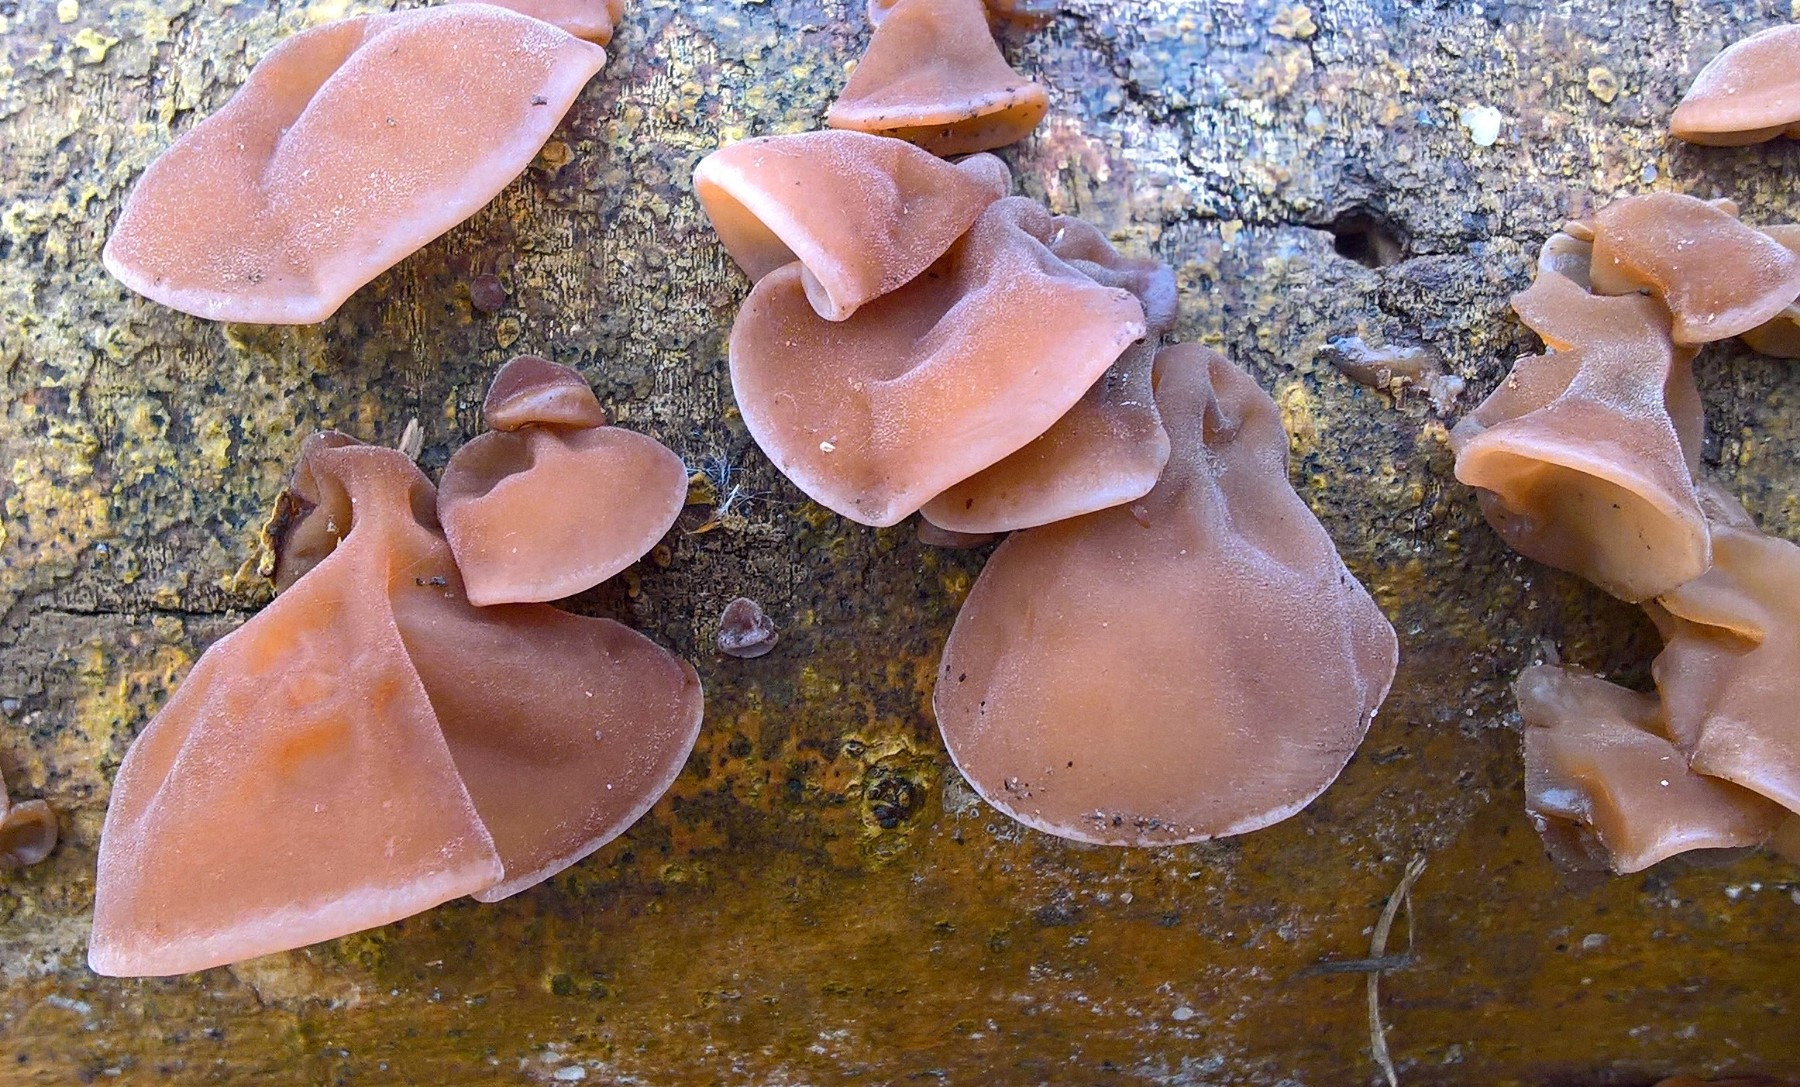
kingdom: Fungi
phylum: Basidiomycota
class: Agaricomycetes
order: Auriculariales
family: Auriculariaceae
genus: Auricularia
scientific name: Auricularia auricula-judae
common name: almindelig judasøre
